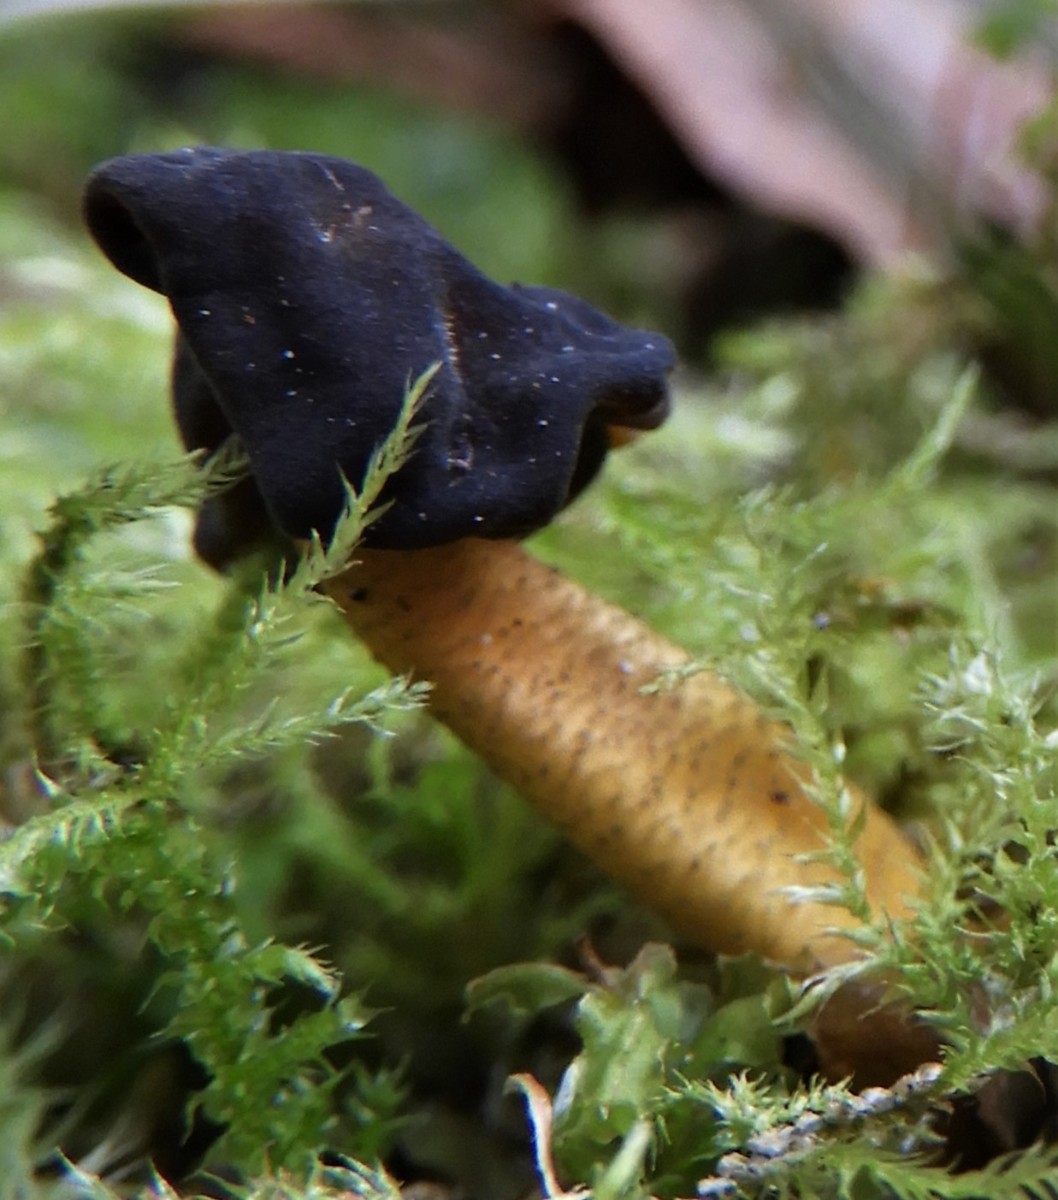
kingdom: Fungi
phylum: Ascomycota
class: Leotiomycetes
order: Leotiales
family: Leotiaceae
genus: Leotia
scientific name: Leotia lubrica
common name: ravsvamp
